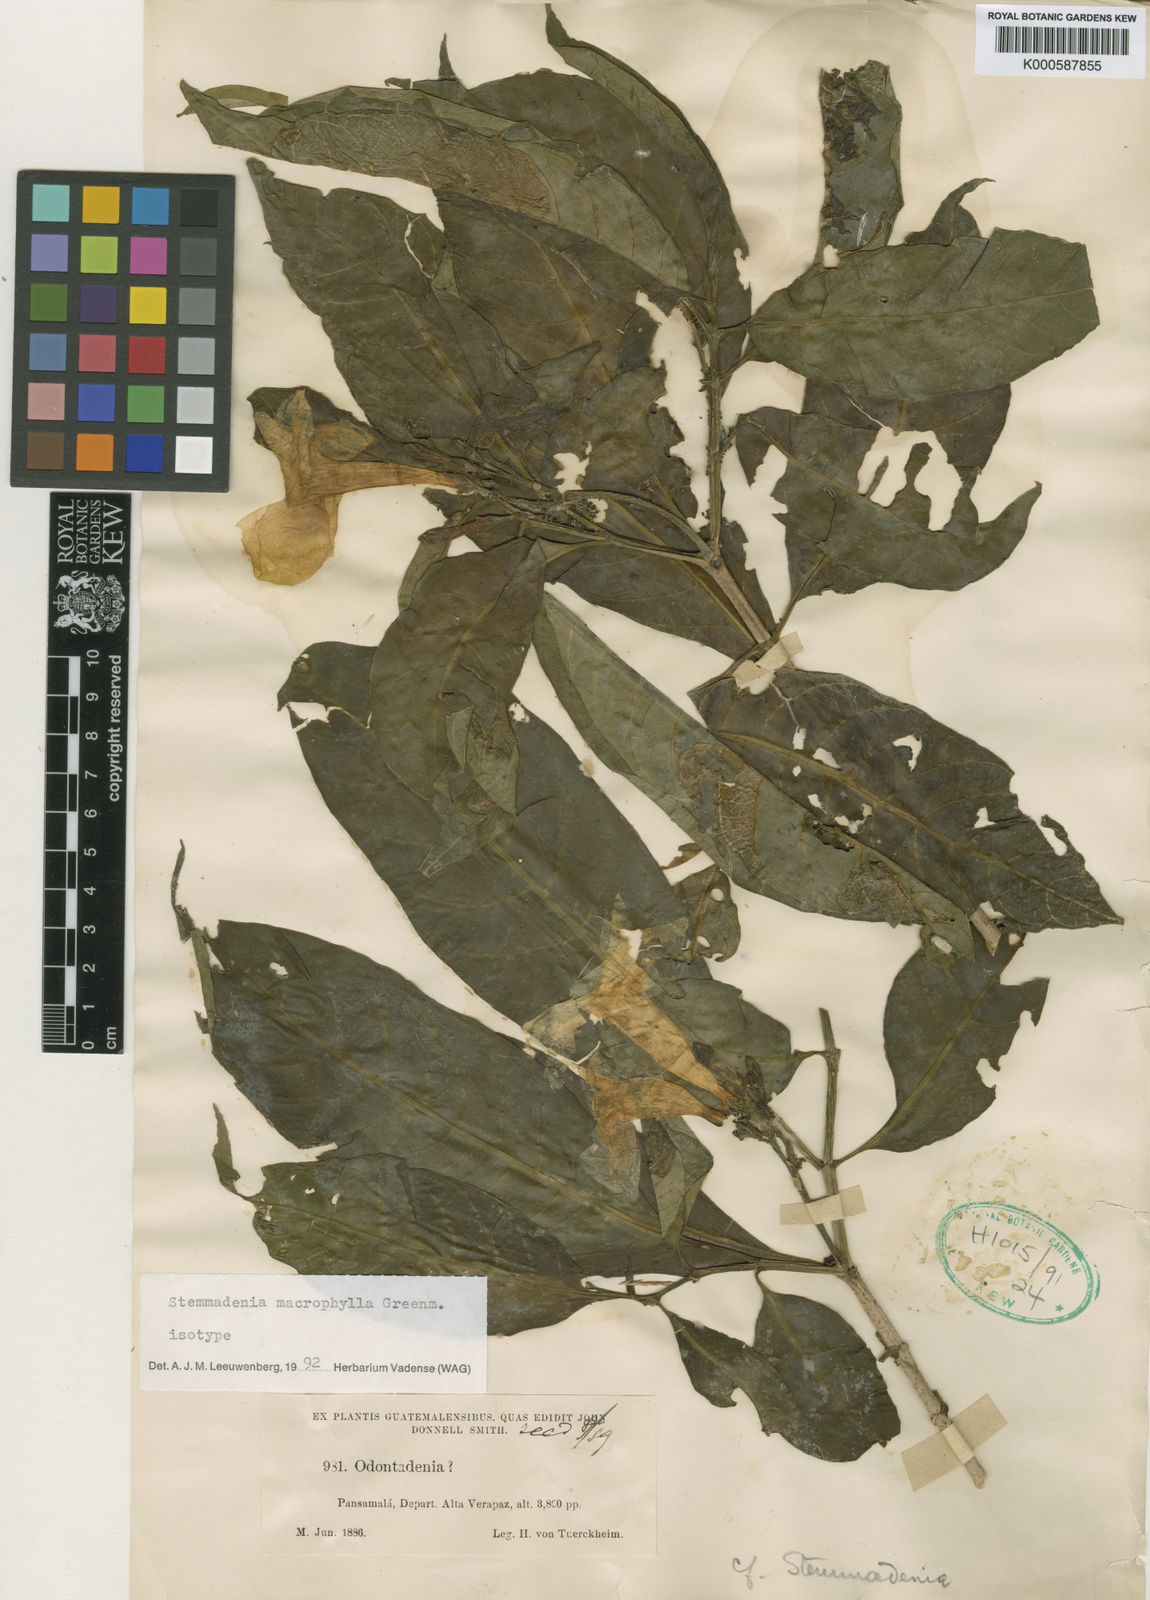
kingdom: Plantae
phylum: Tracheophyta
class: Magnoliopsida
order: Gentianales
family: Apocynaceae
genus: Tabernaemontana
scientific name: Tabernaemontana litoralis
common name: Milkwood
